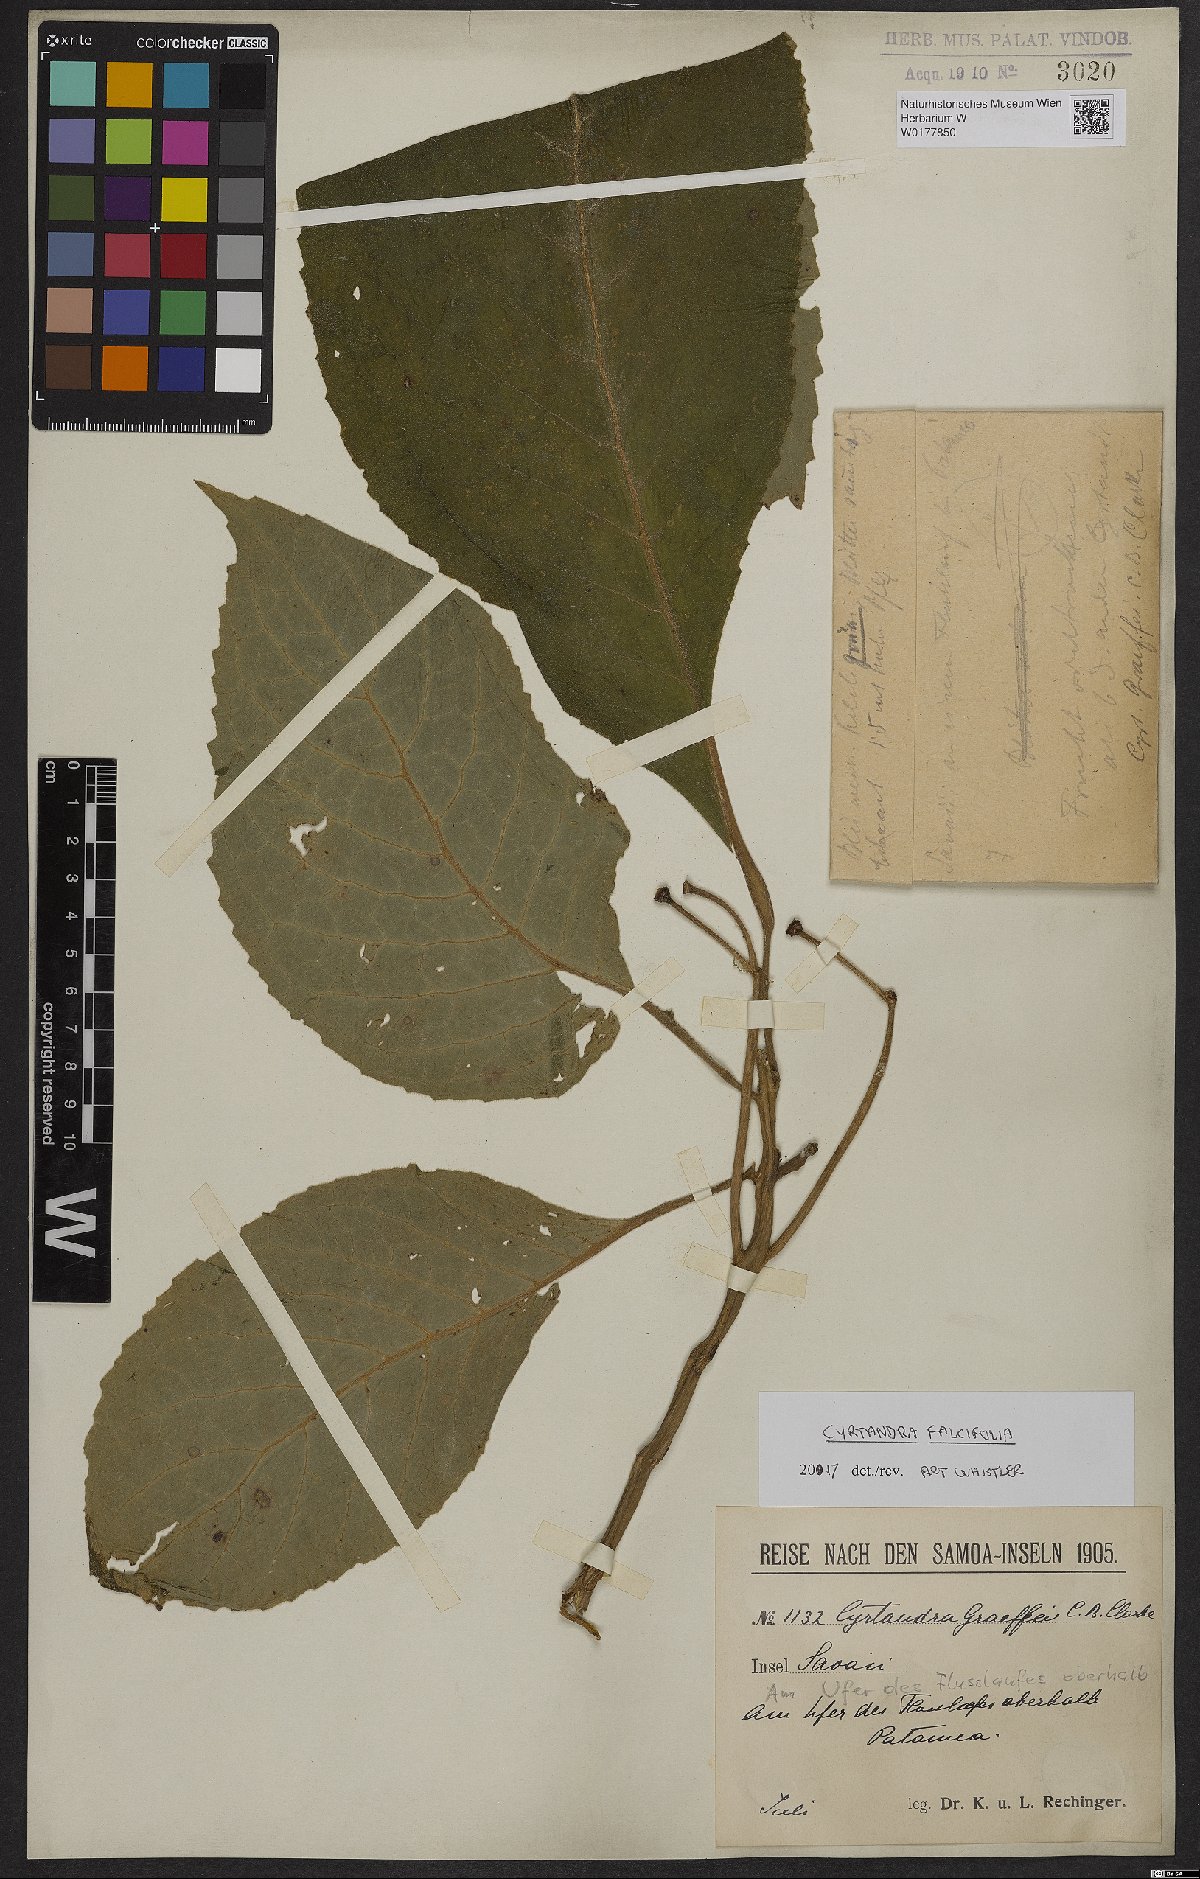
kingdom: Plantae
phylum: Tracheophyta
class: Magnoliopsida
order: Lamiales
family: Gesneriaceae
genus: Cyrtandra
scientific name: Cyrtandra falcifolia
